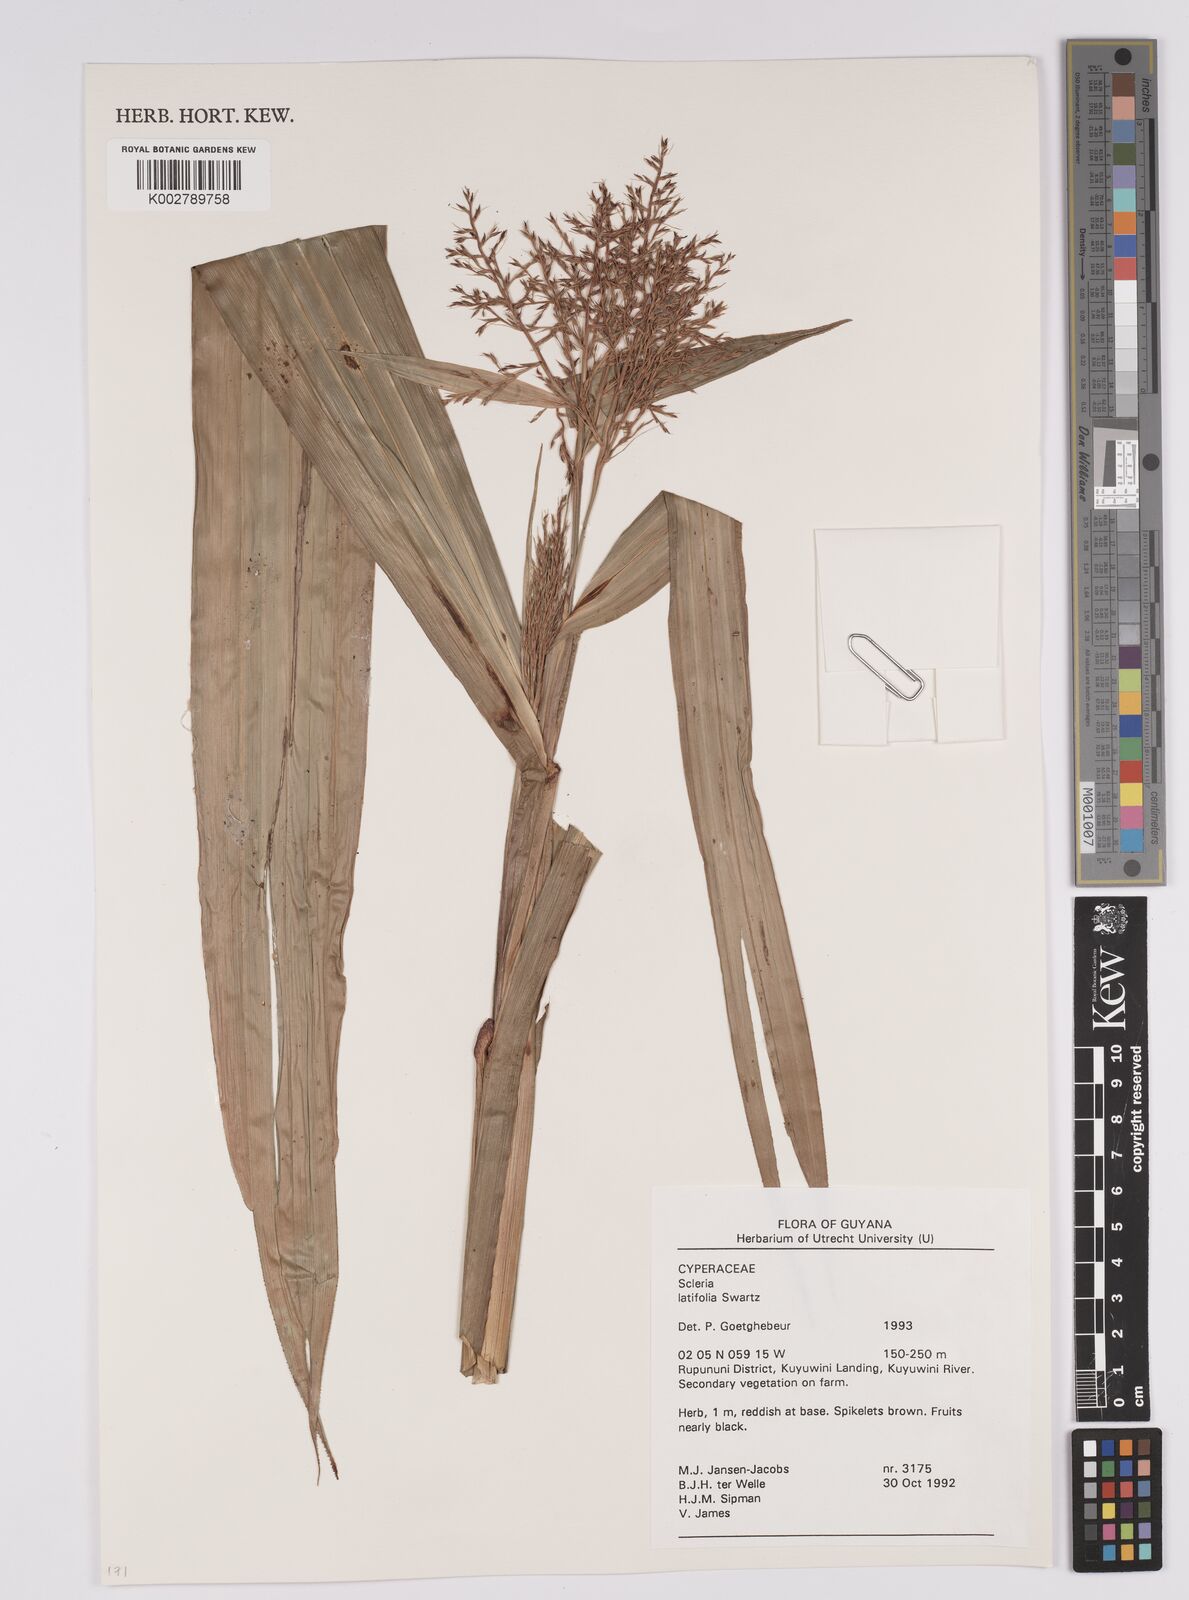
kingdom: Plantae
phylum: Tracheophyta
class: Liliopsida
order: Poales
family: Cyperaceae
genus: Scleria
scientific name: Scleria latifolia
